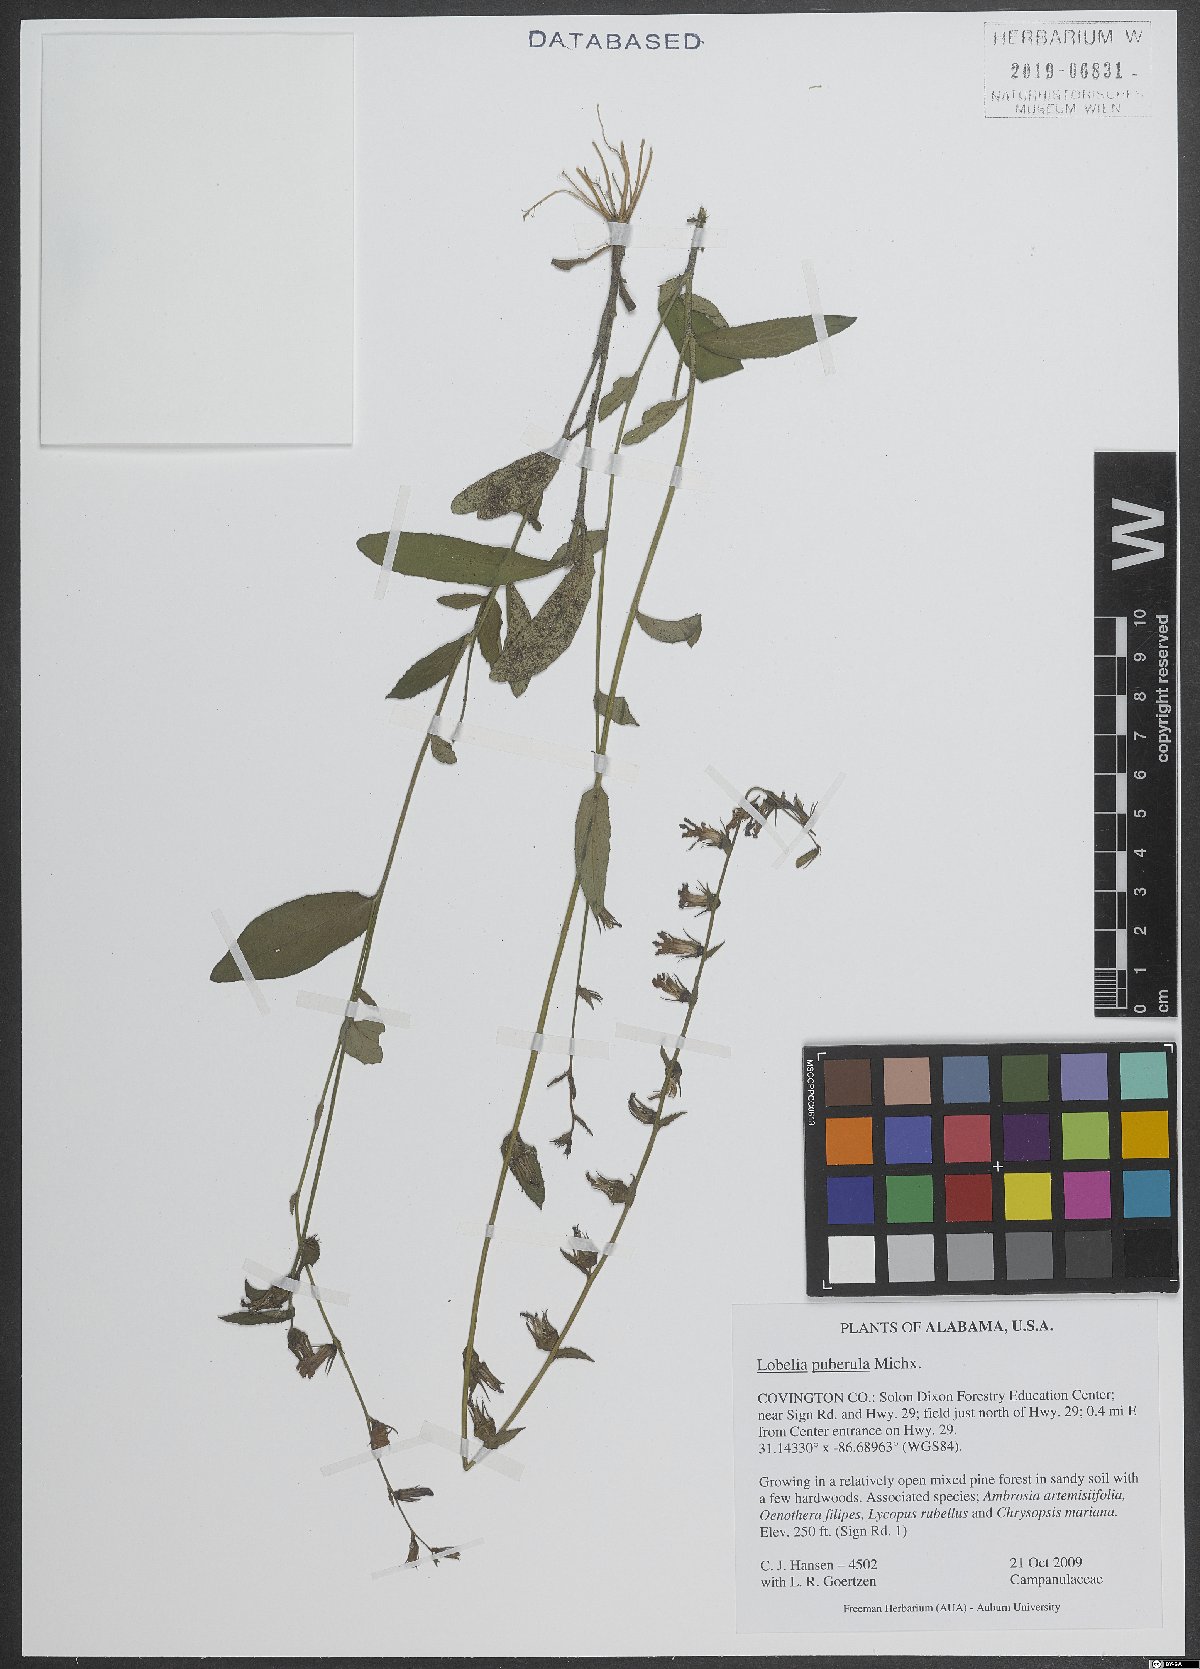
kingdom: Plantae
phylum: Tracheophyta
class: Magnoliopsida
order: Asterales
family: Campanulaceae
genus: Lobelia
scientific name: Lobelia puberula
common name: Purple dewdrop
